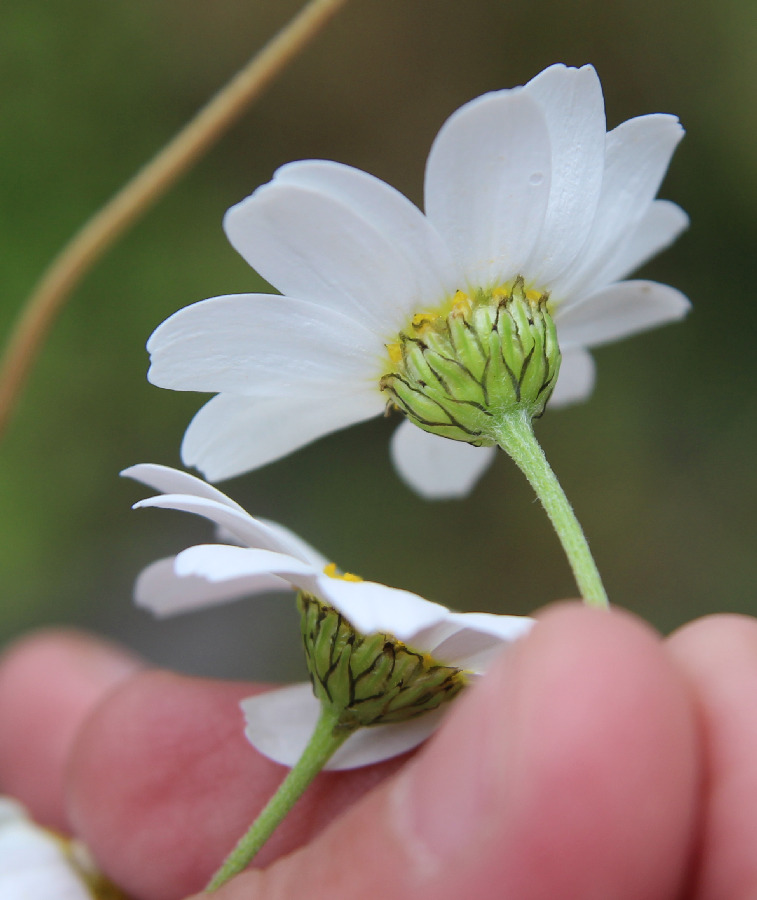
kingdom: Plantae
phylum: Tracheophyta
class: Magnoliopsida
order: Asterales
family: Asteraceae
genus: Anthemis
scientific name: Anthemis arvensis
